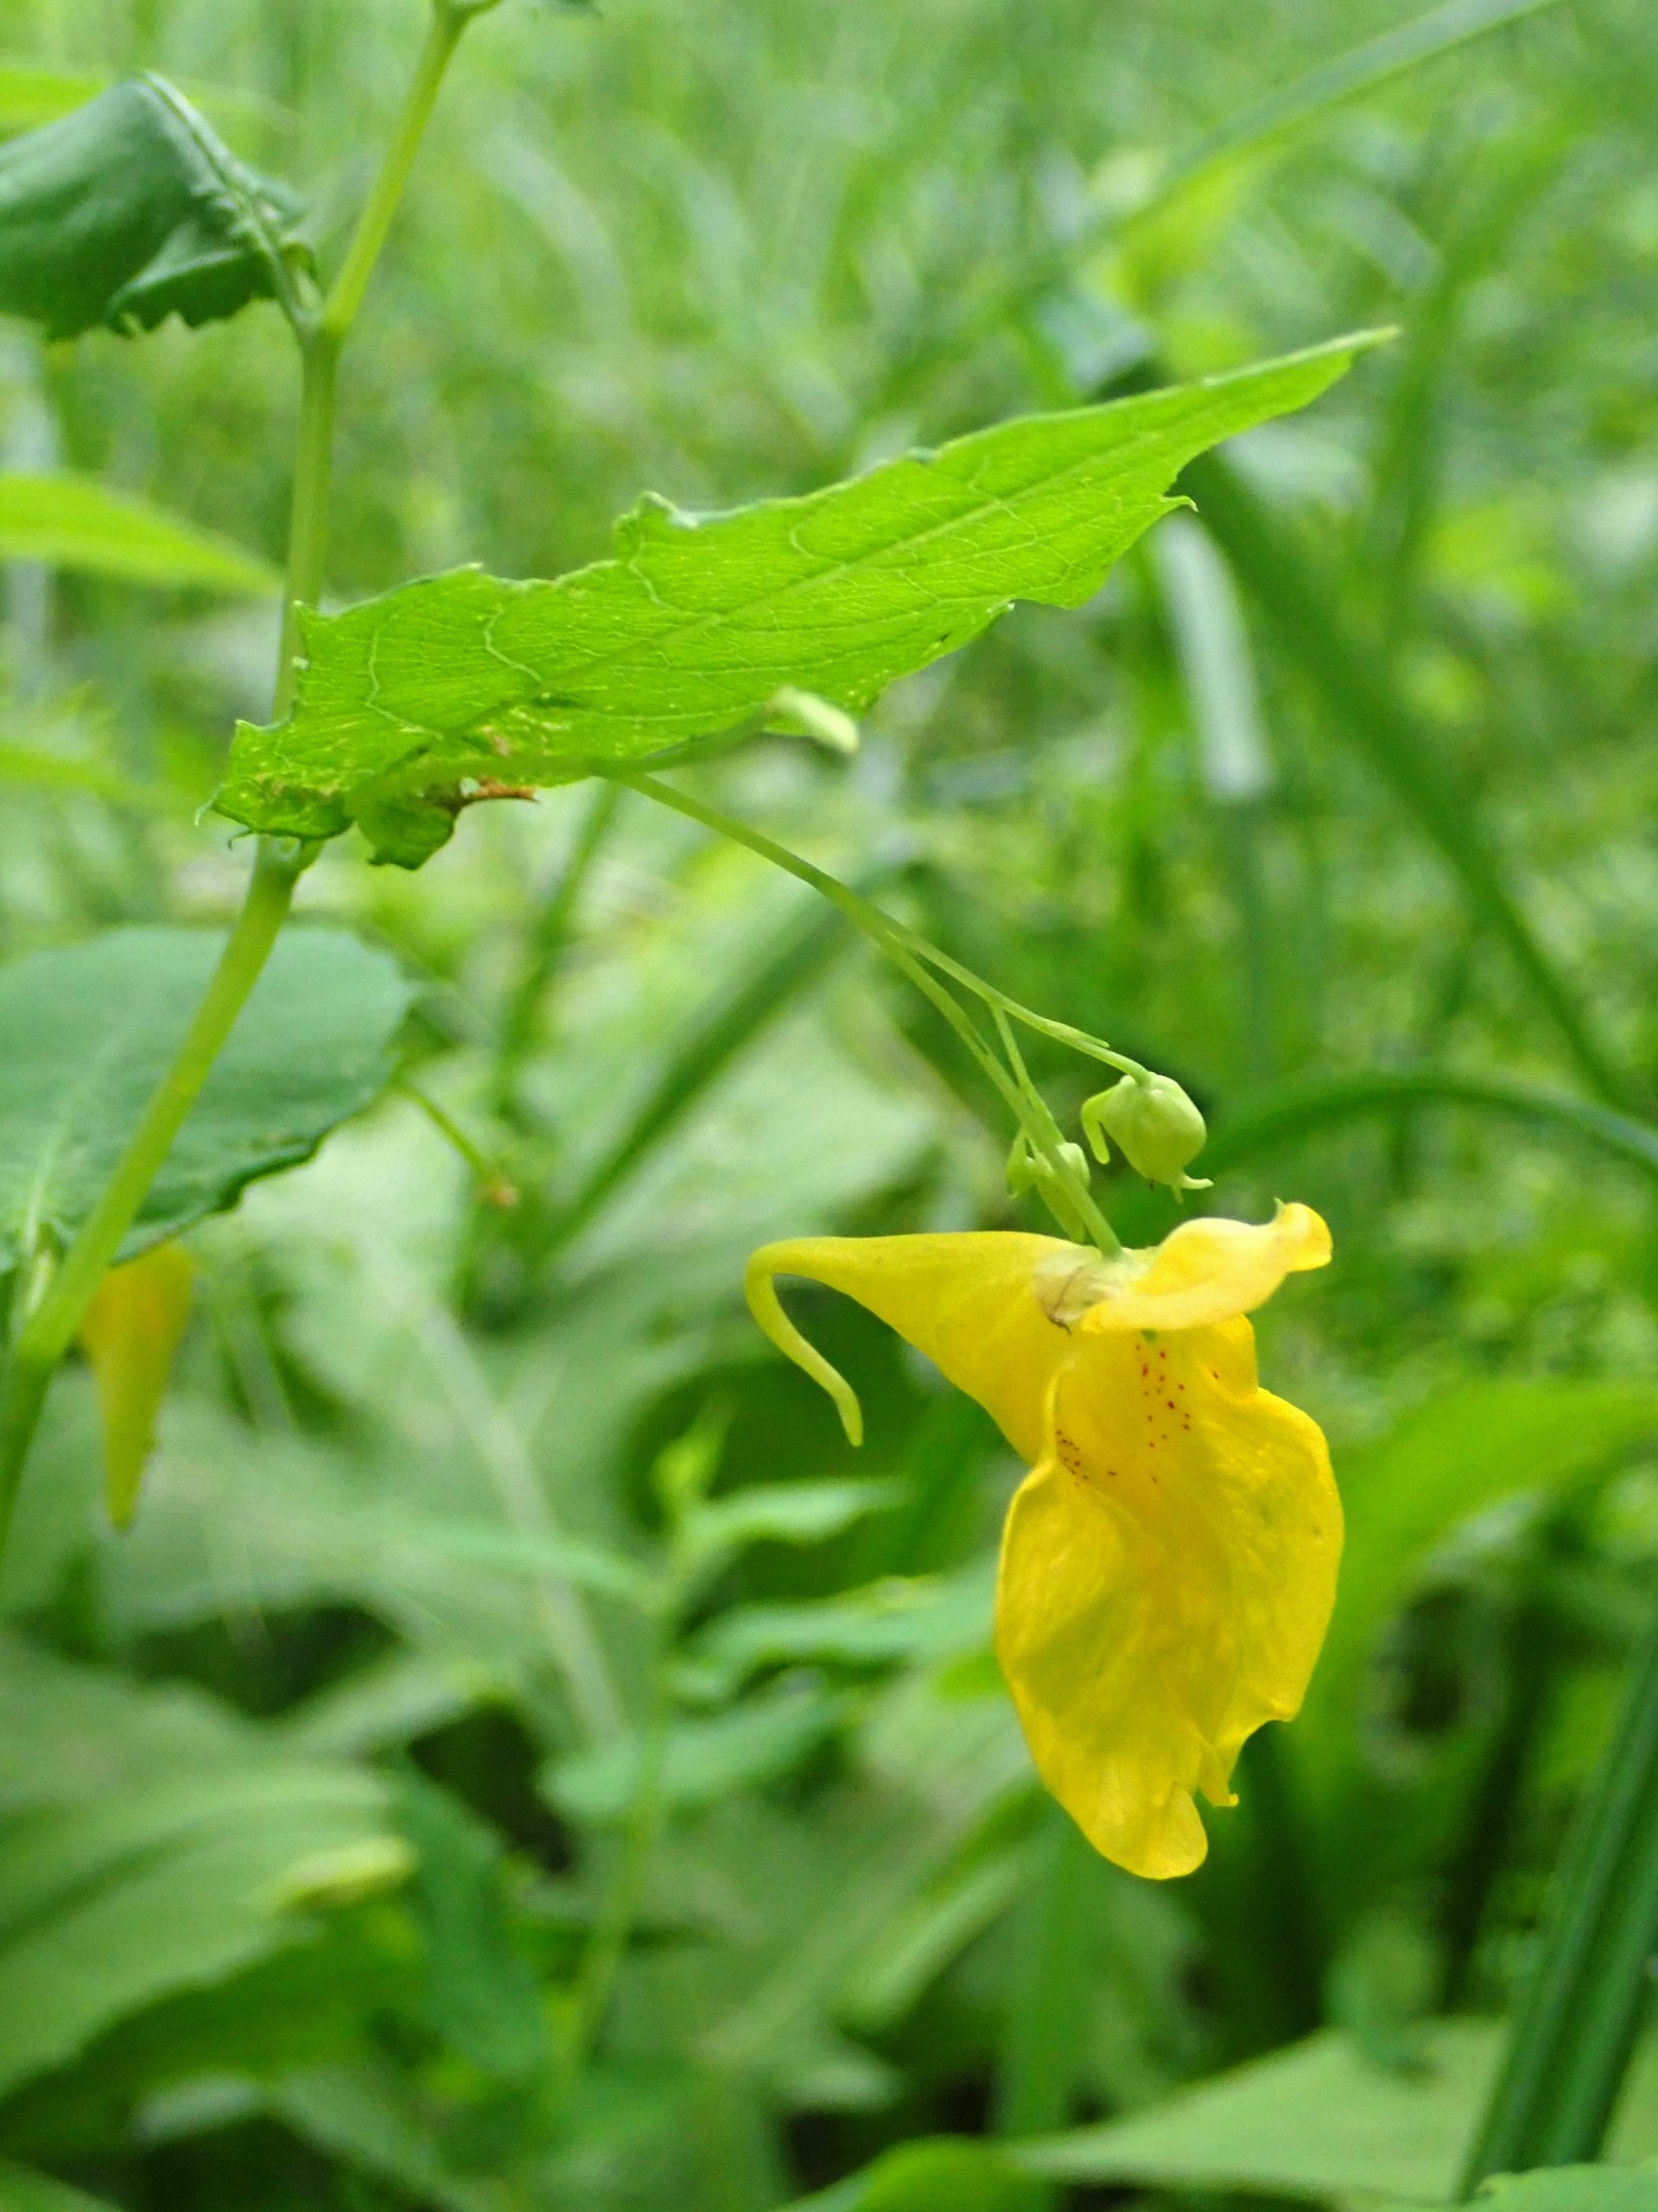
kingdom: Plantae
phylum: Tracheophyta
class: Magnoliopsida
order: Ericales
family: Balsaminaceae
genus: Impatiens
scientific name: Impatiens noli-tangere
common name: Spring-balsamin
